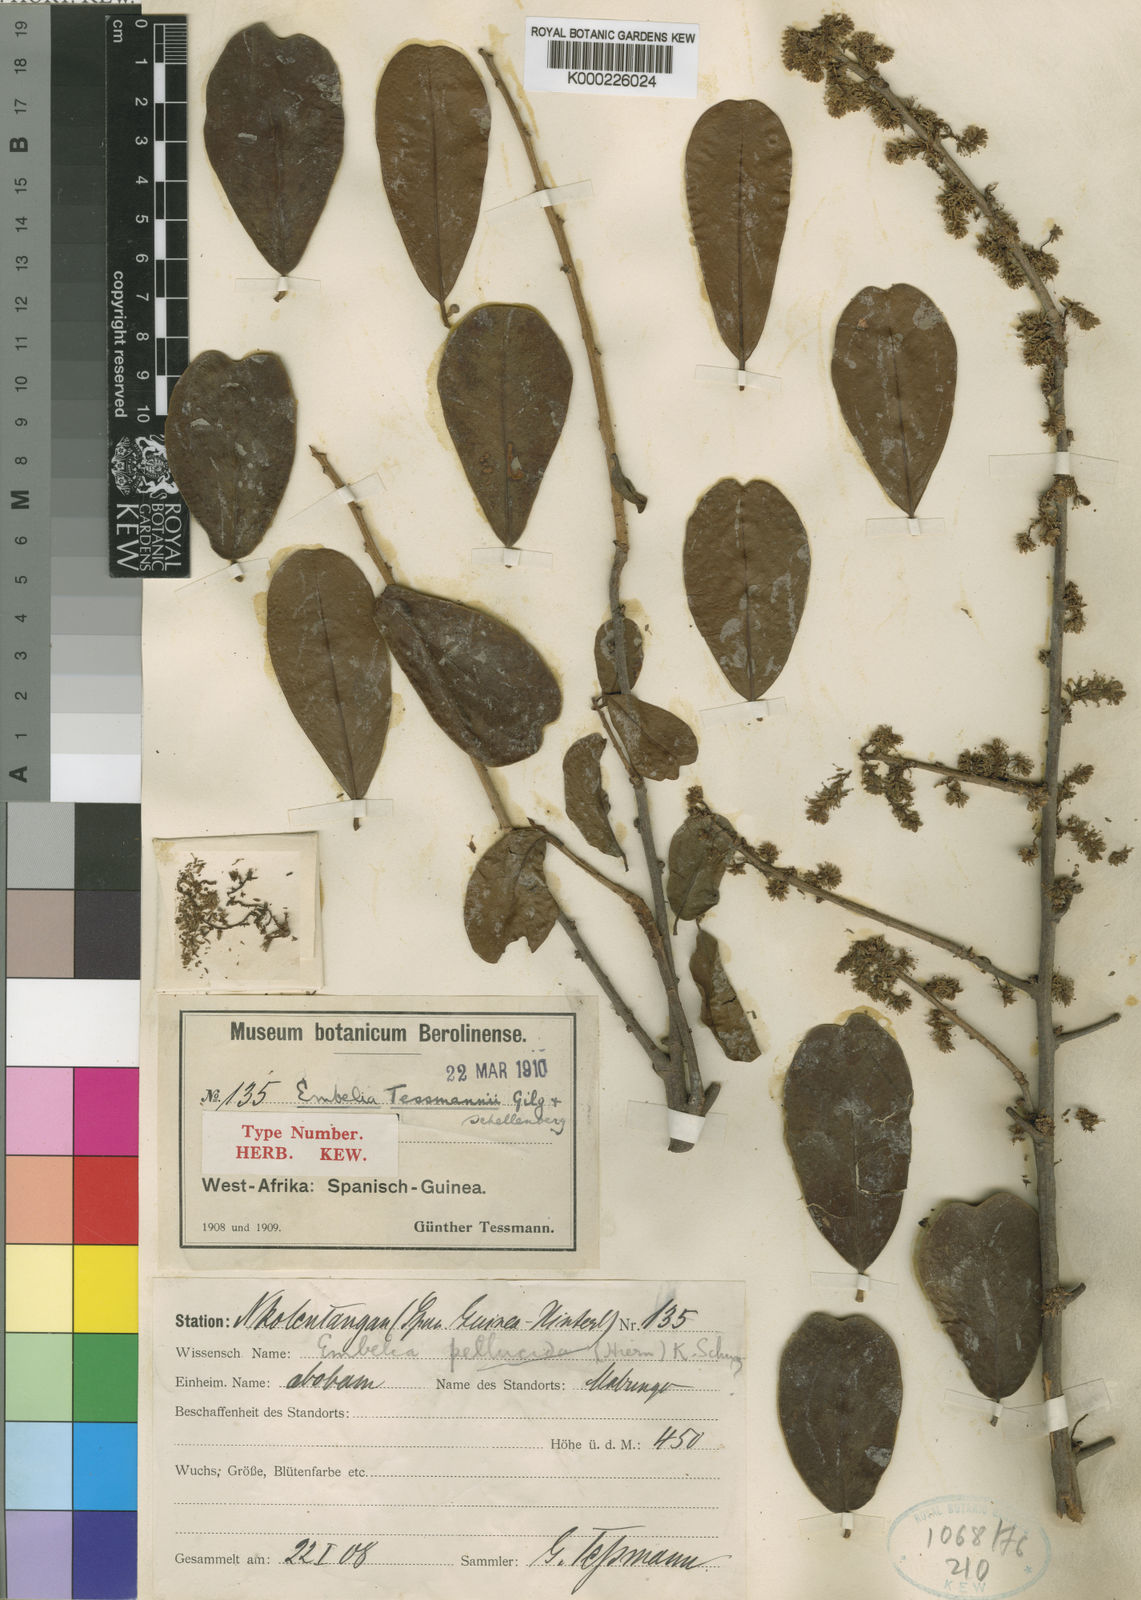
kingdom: Plantae
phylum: Tracheophyta
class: Magnoliopsida
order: Ericales
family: Primulaceae
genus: Embelia
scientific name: Embelia schimperi
